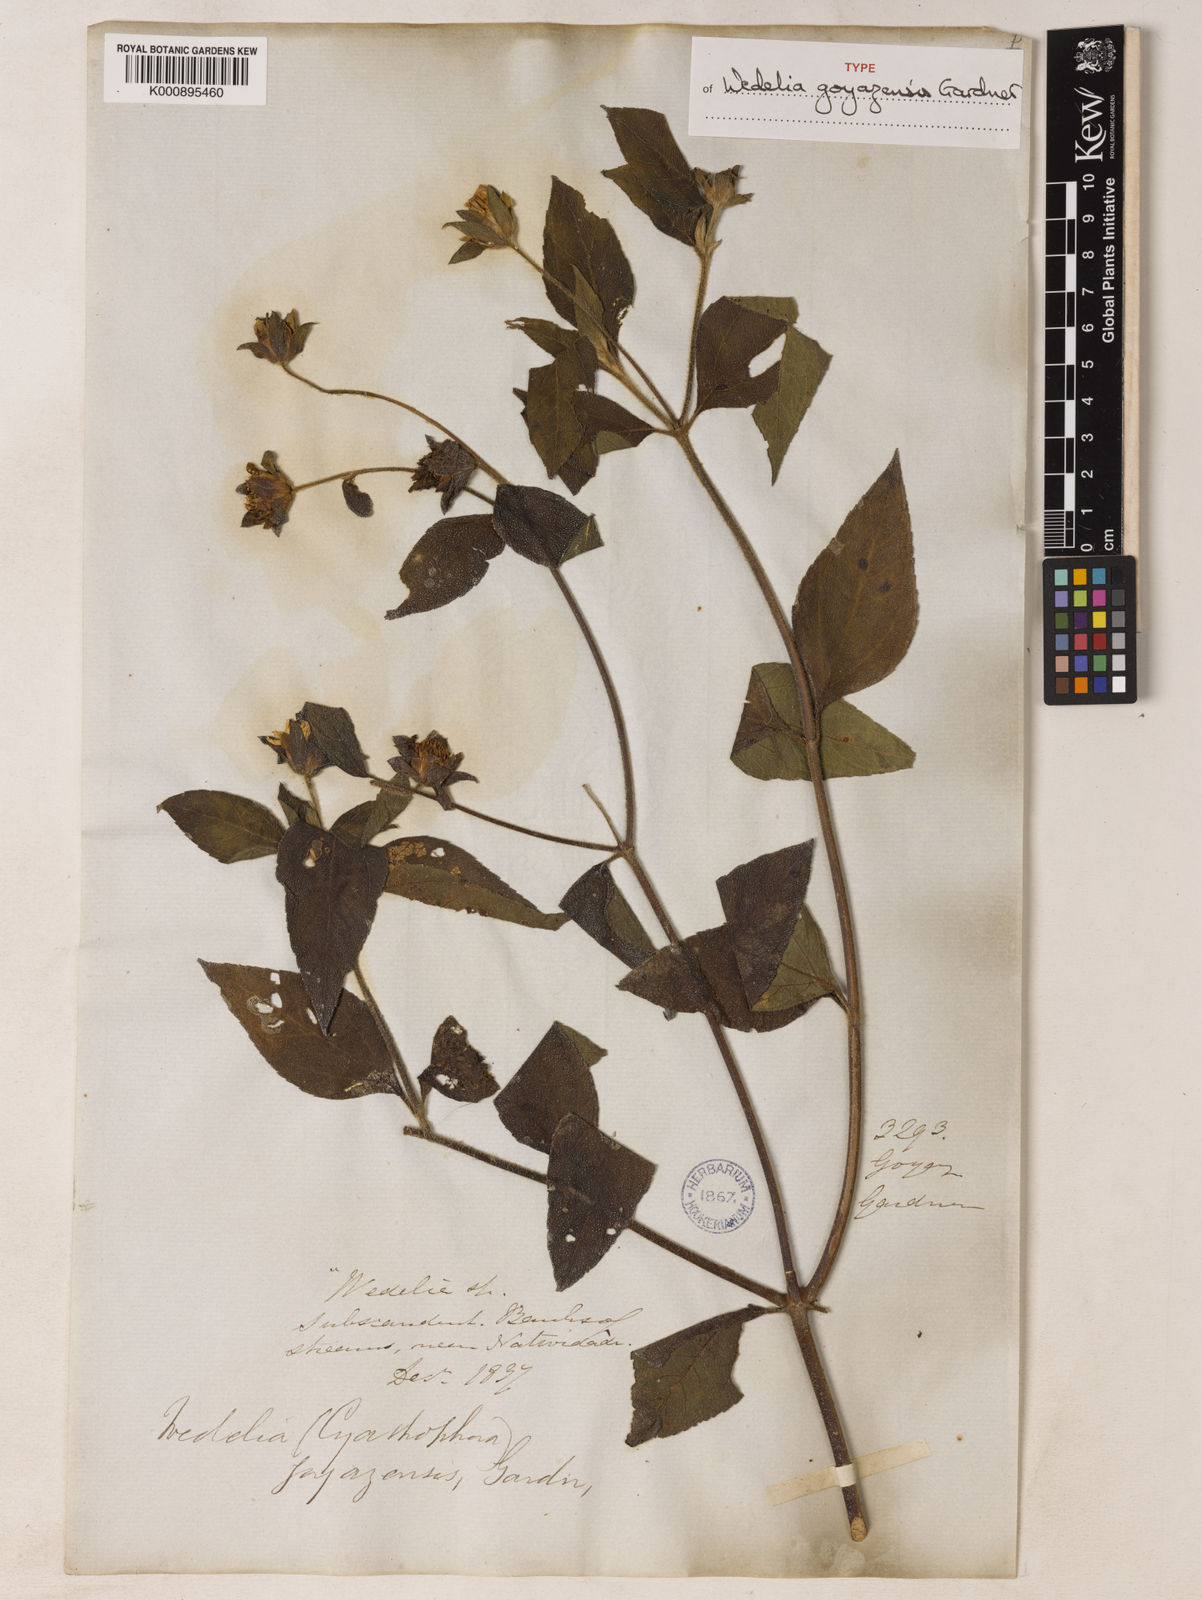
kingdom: Plantae
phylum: Tracheophyta
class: Magnoliopsida
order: Asterales
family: Asteraceae
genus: Wedelia
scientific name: Wedelia goyazensis
